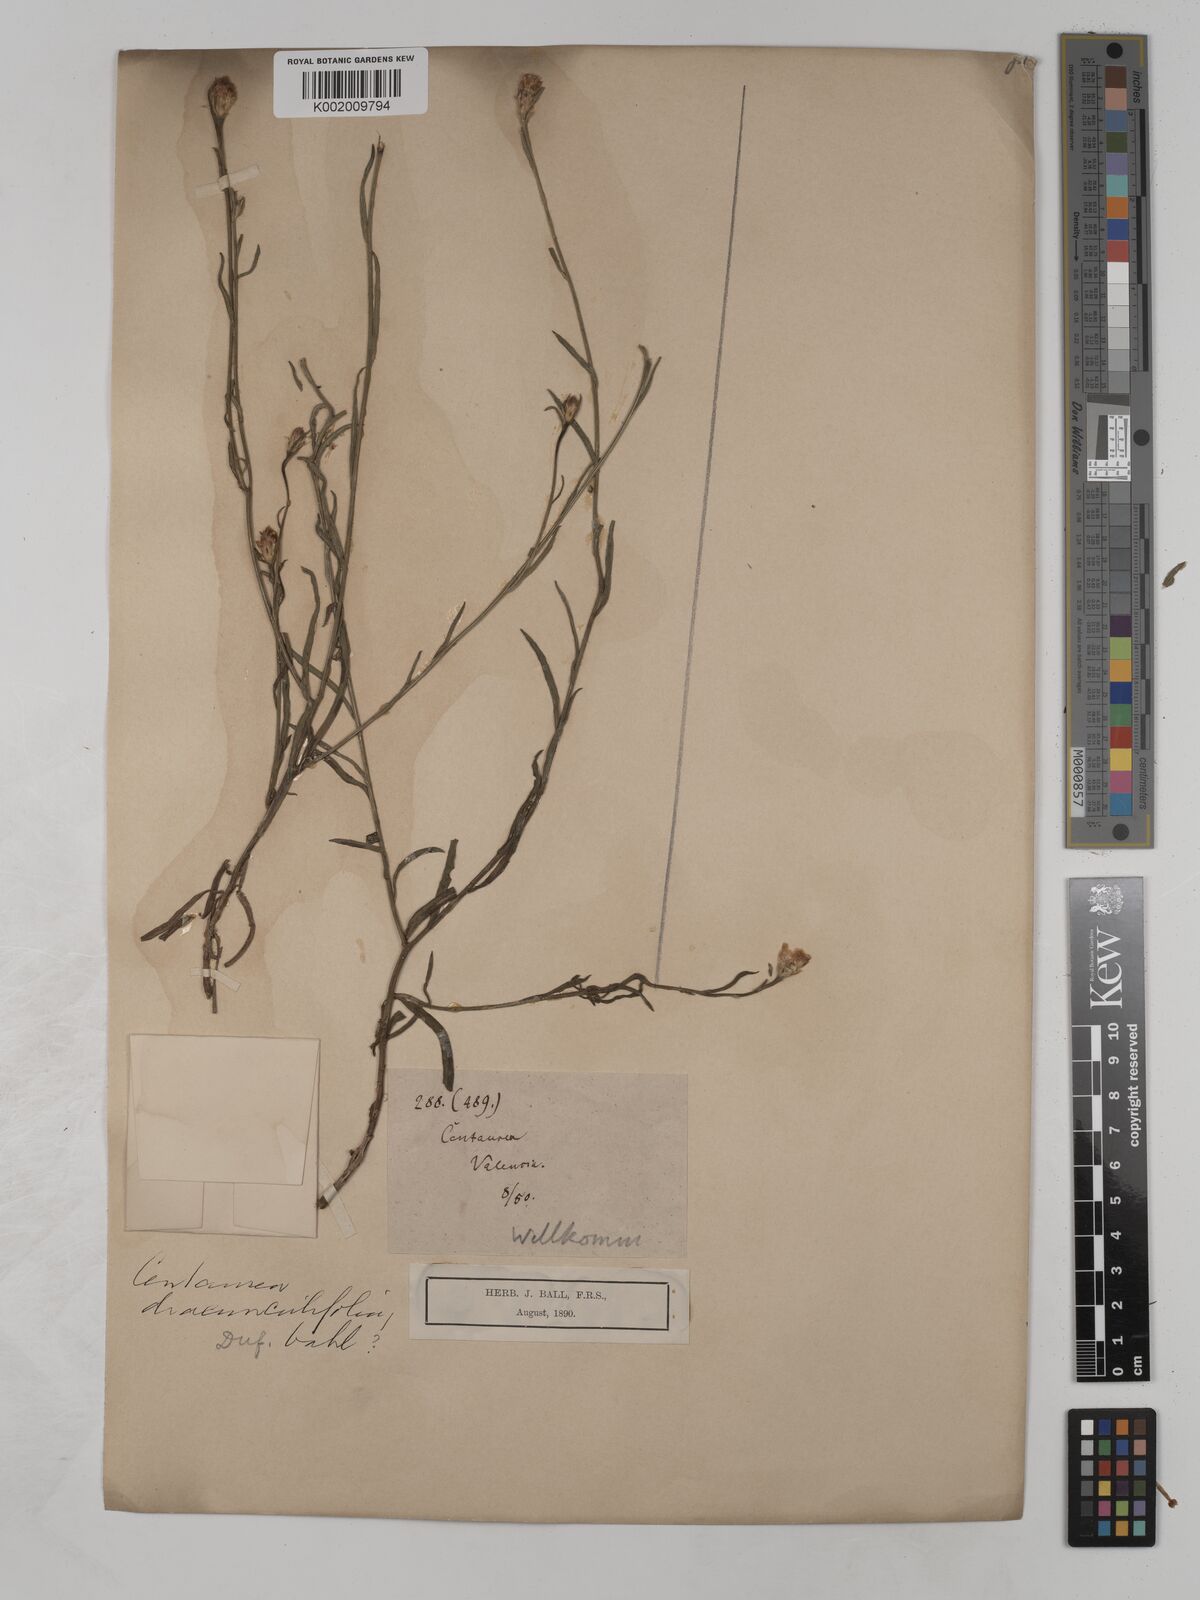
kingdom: Plantae
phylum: Tracheophyta
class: Magnoliopsida
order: Asterales
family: Asteraceae
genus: Centaurea
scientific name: Centaurea dracunculifolia
